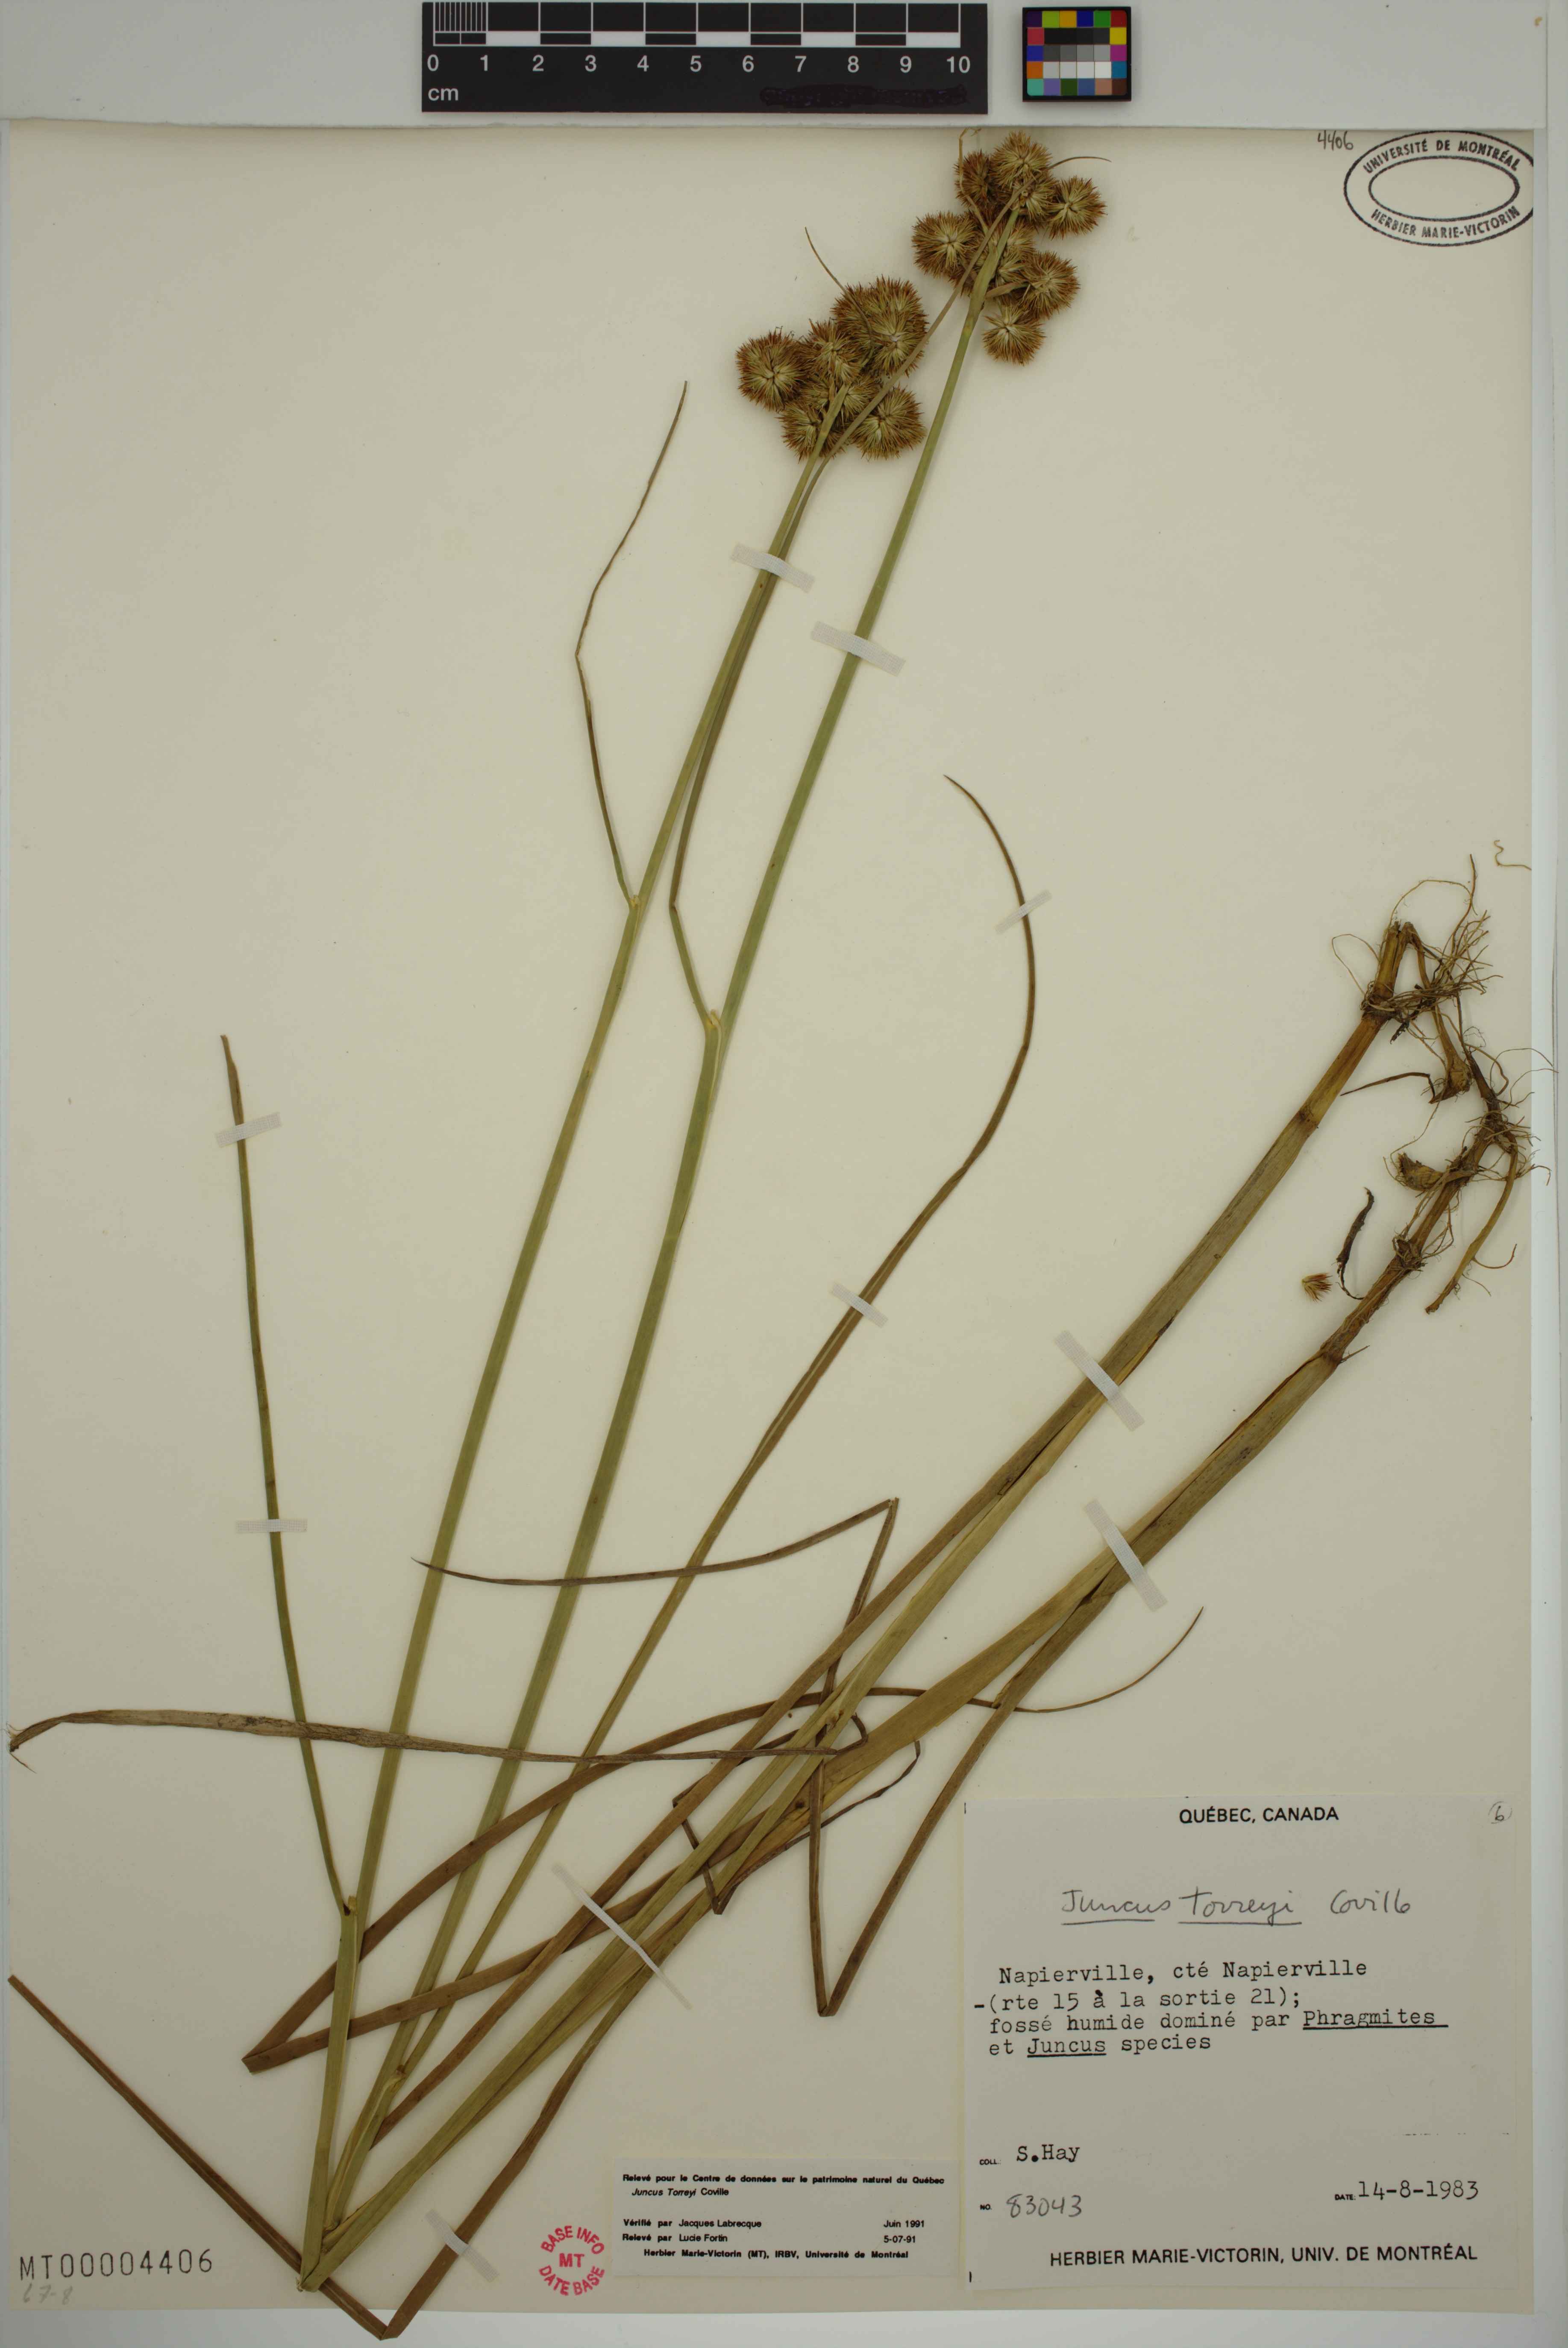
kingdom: Plantae
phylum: Tracheophyta
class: Liliopsida
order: Poales
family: Juncaceae
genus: Juncus
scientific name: Juncus torreyi
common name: Torrey's rush
